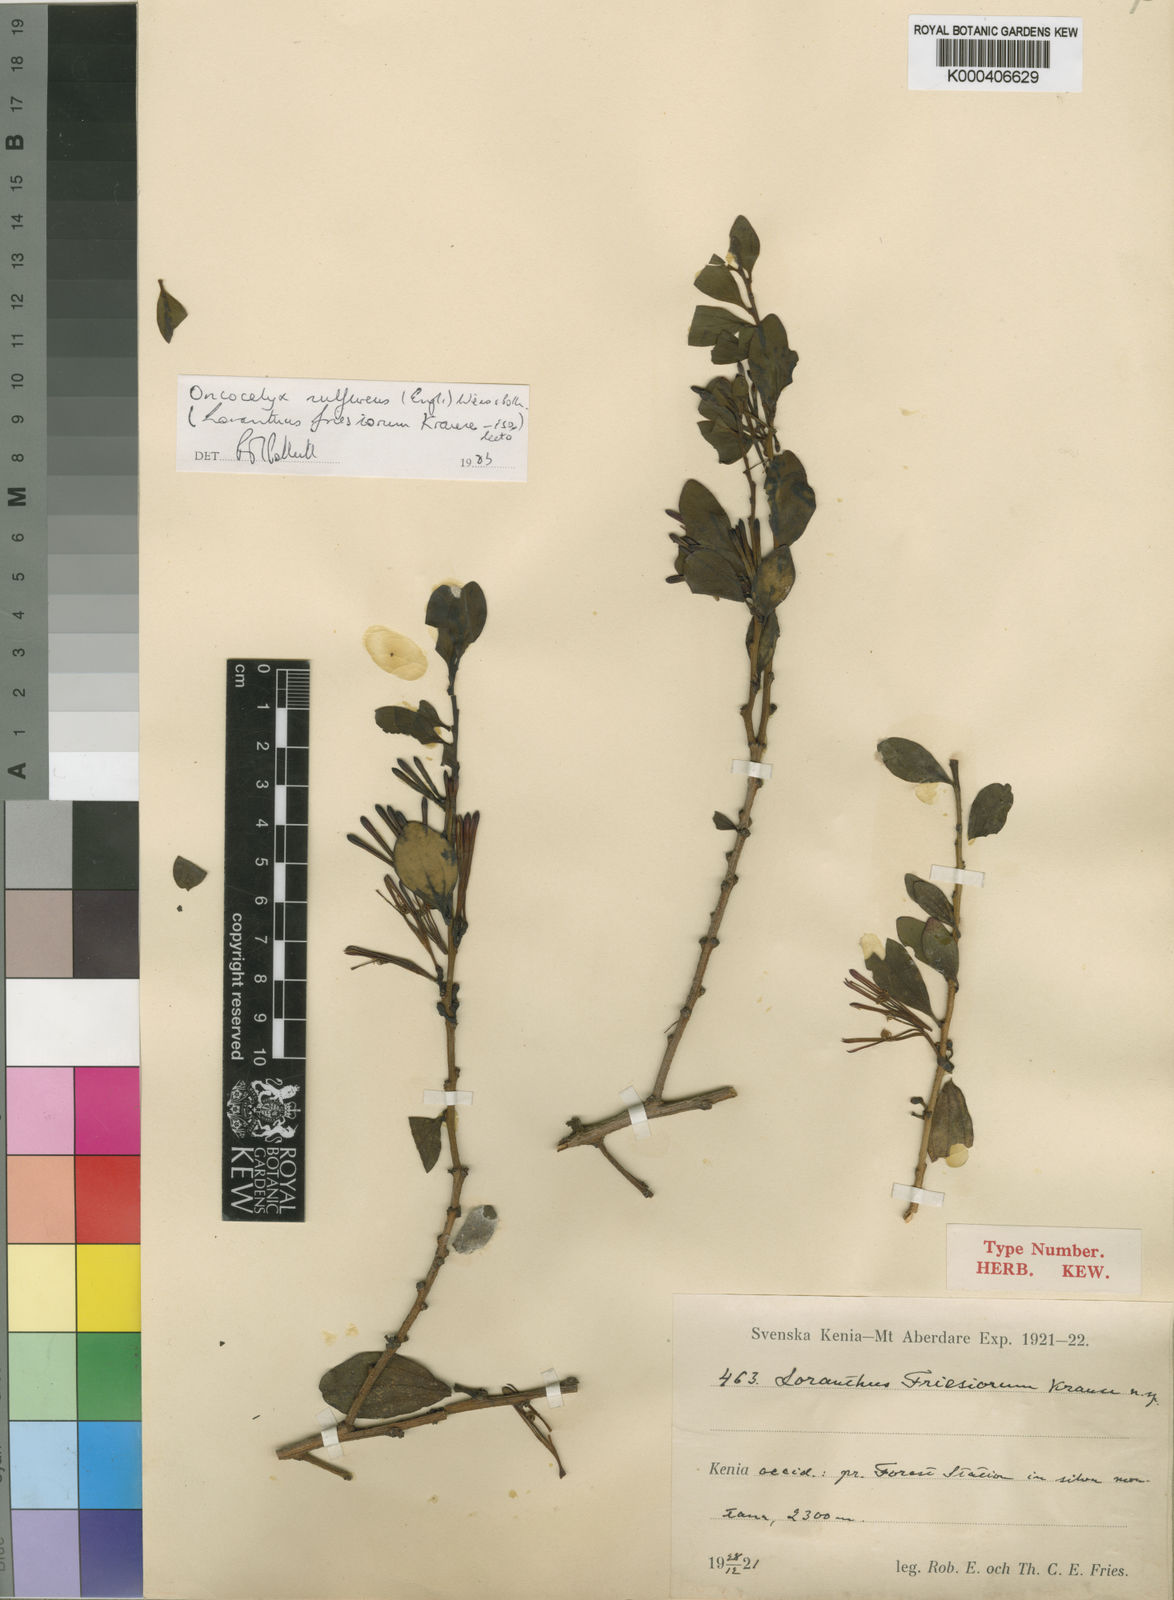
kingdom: Plantae
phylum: Tracheophyta
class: Magnoliopsida
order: Santalales
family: Loranthaceae
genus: Oncocalyx
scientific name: Oncocalyx sulfureus
